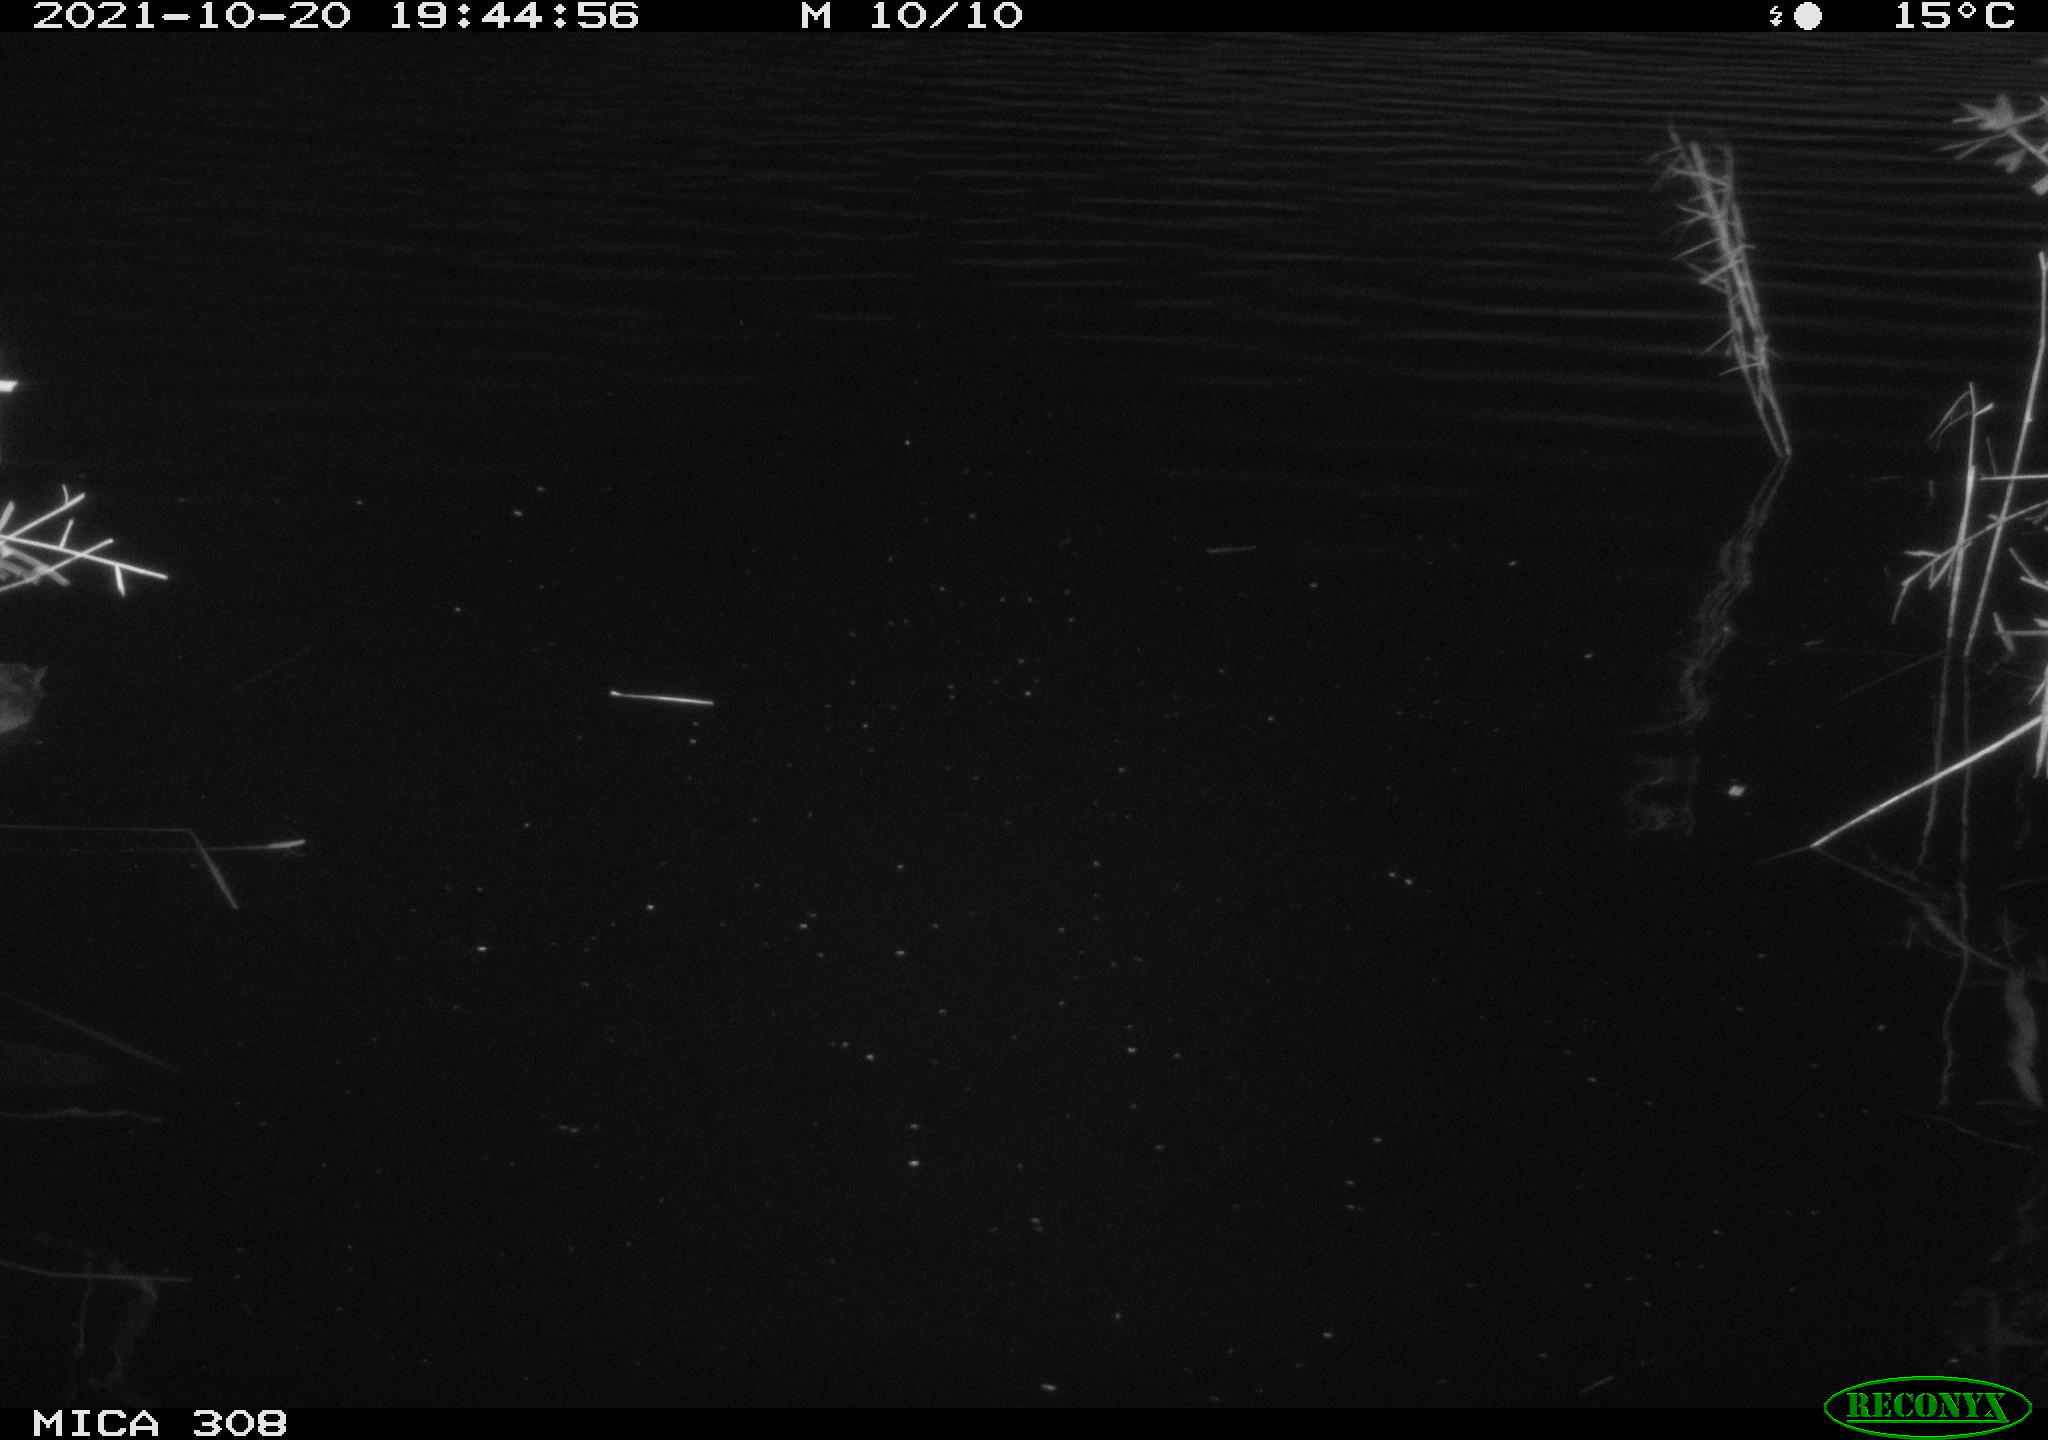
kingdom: Animalia
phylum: Chordata
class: Aves
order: Gruiformes
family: Rallidae
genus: Fulica
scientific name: Fulica atra
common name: Eurasian coot
